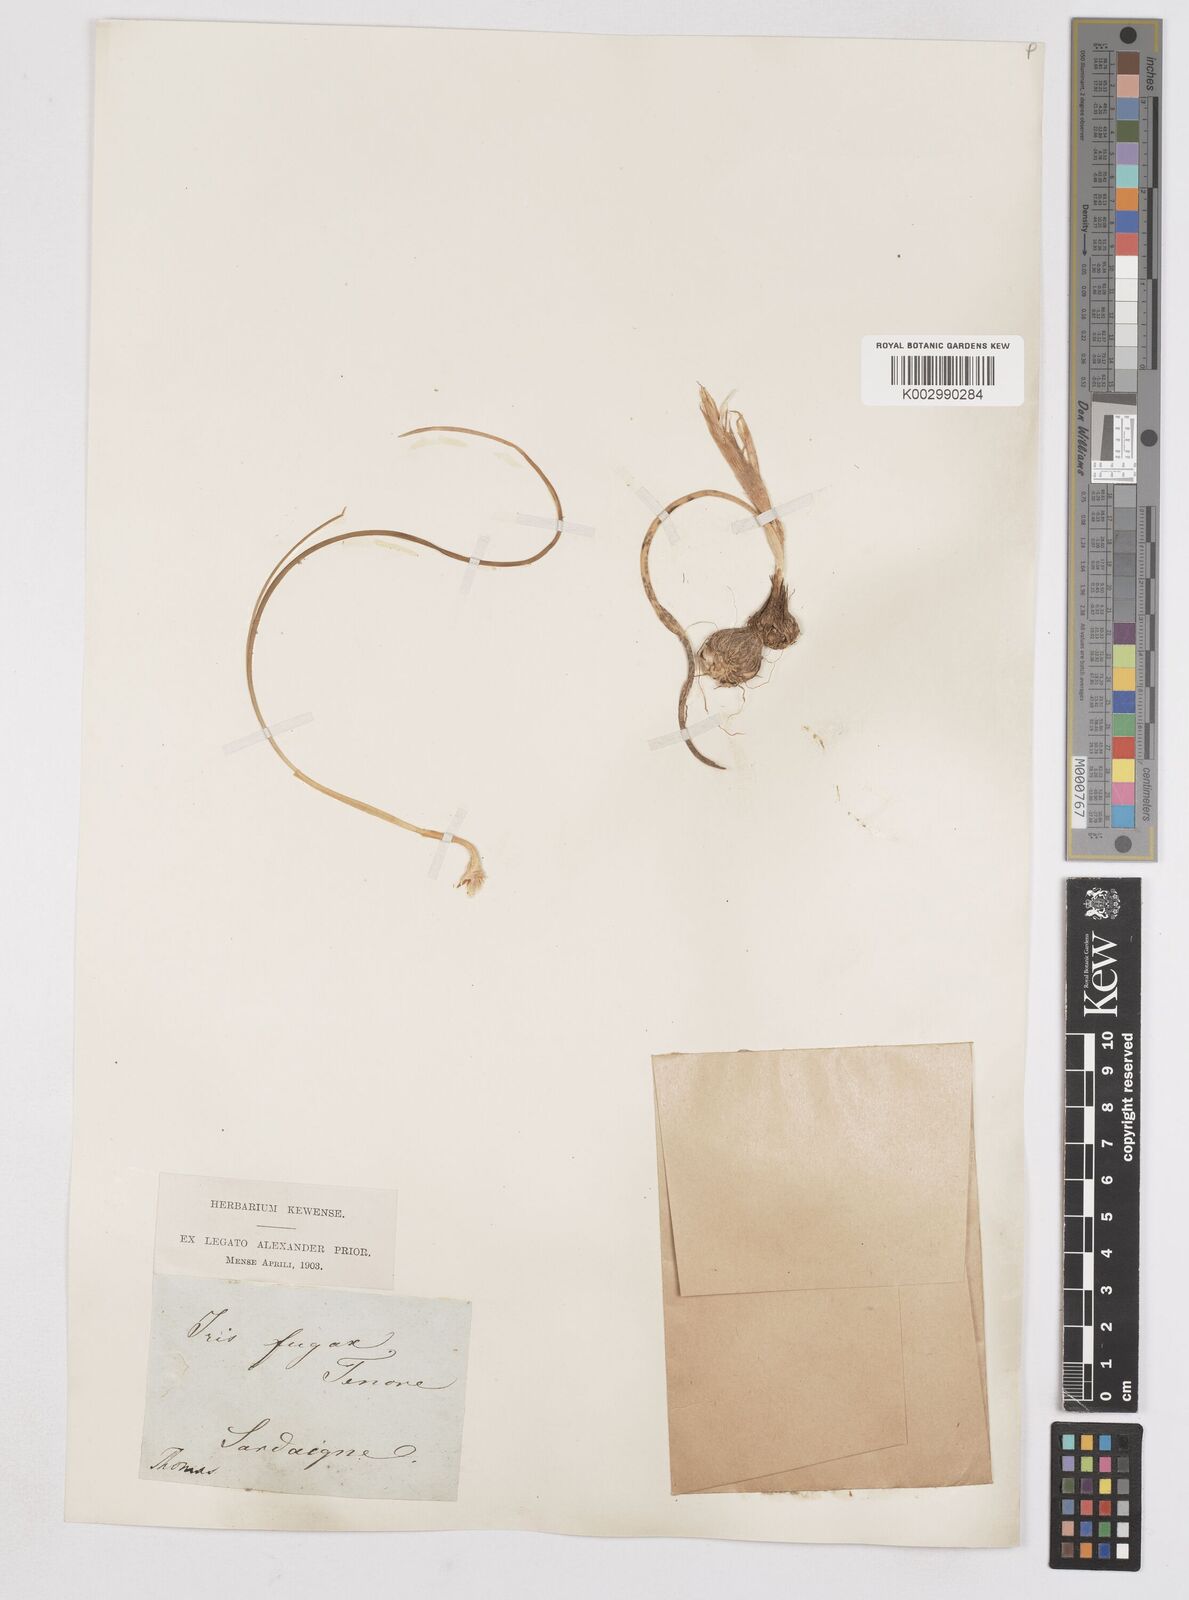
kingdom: Plantae
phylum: Tracheophyta
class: Liliopsida
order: Asparagales
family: Iridaceae
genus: Moraea
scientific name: Moraea sisyrinchium
